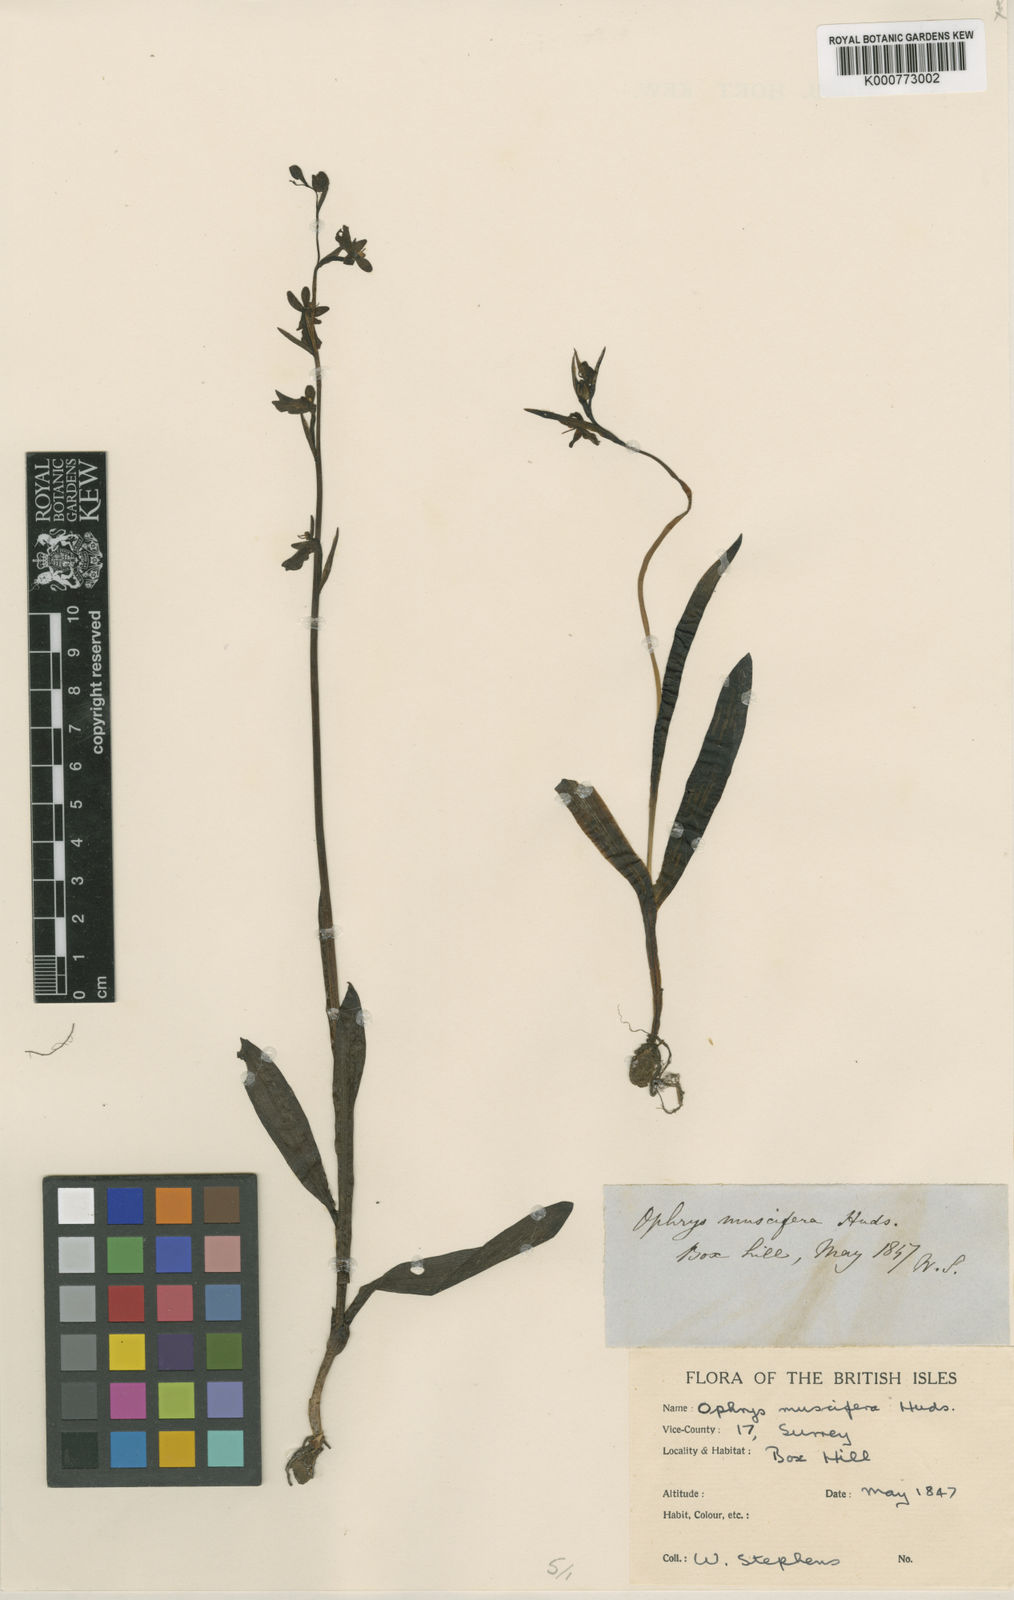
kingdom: Plantae
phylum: Tracheophyta
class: Liliopsida
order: Asparagales
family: Orchidaceae
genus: Ophrys
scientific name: Ophrys insectifera
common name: Fly orchid
